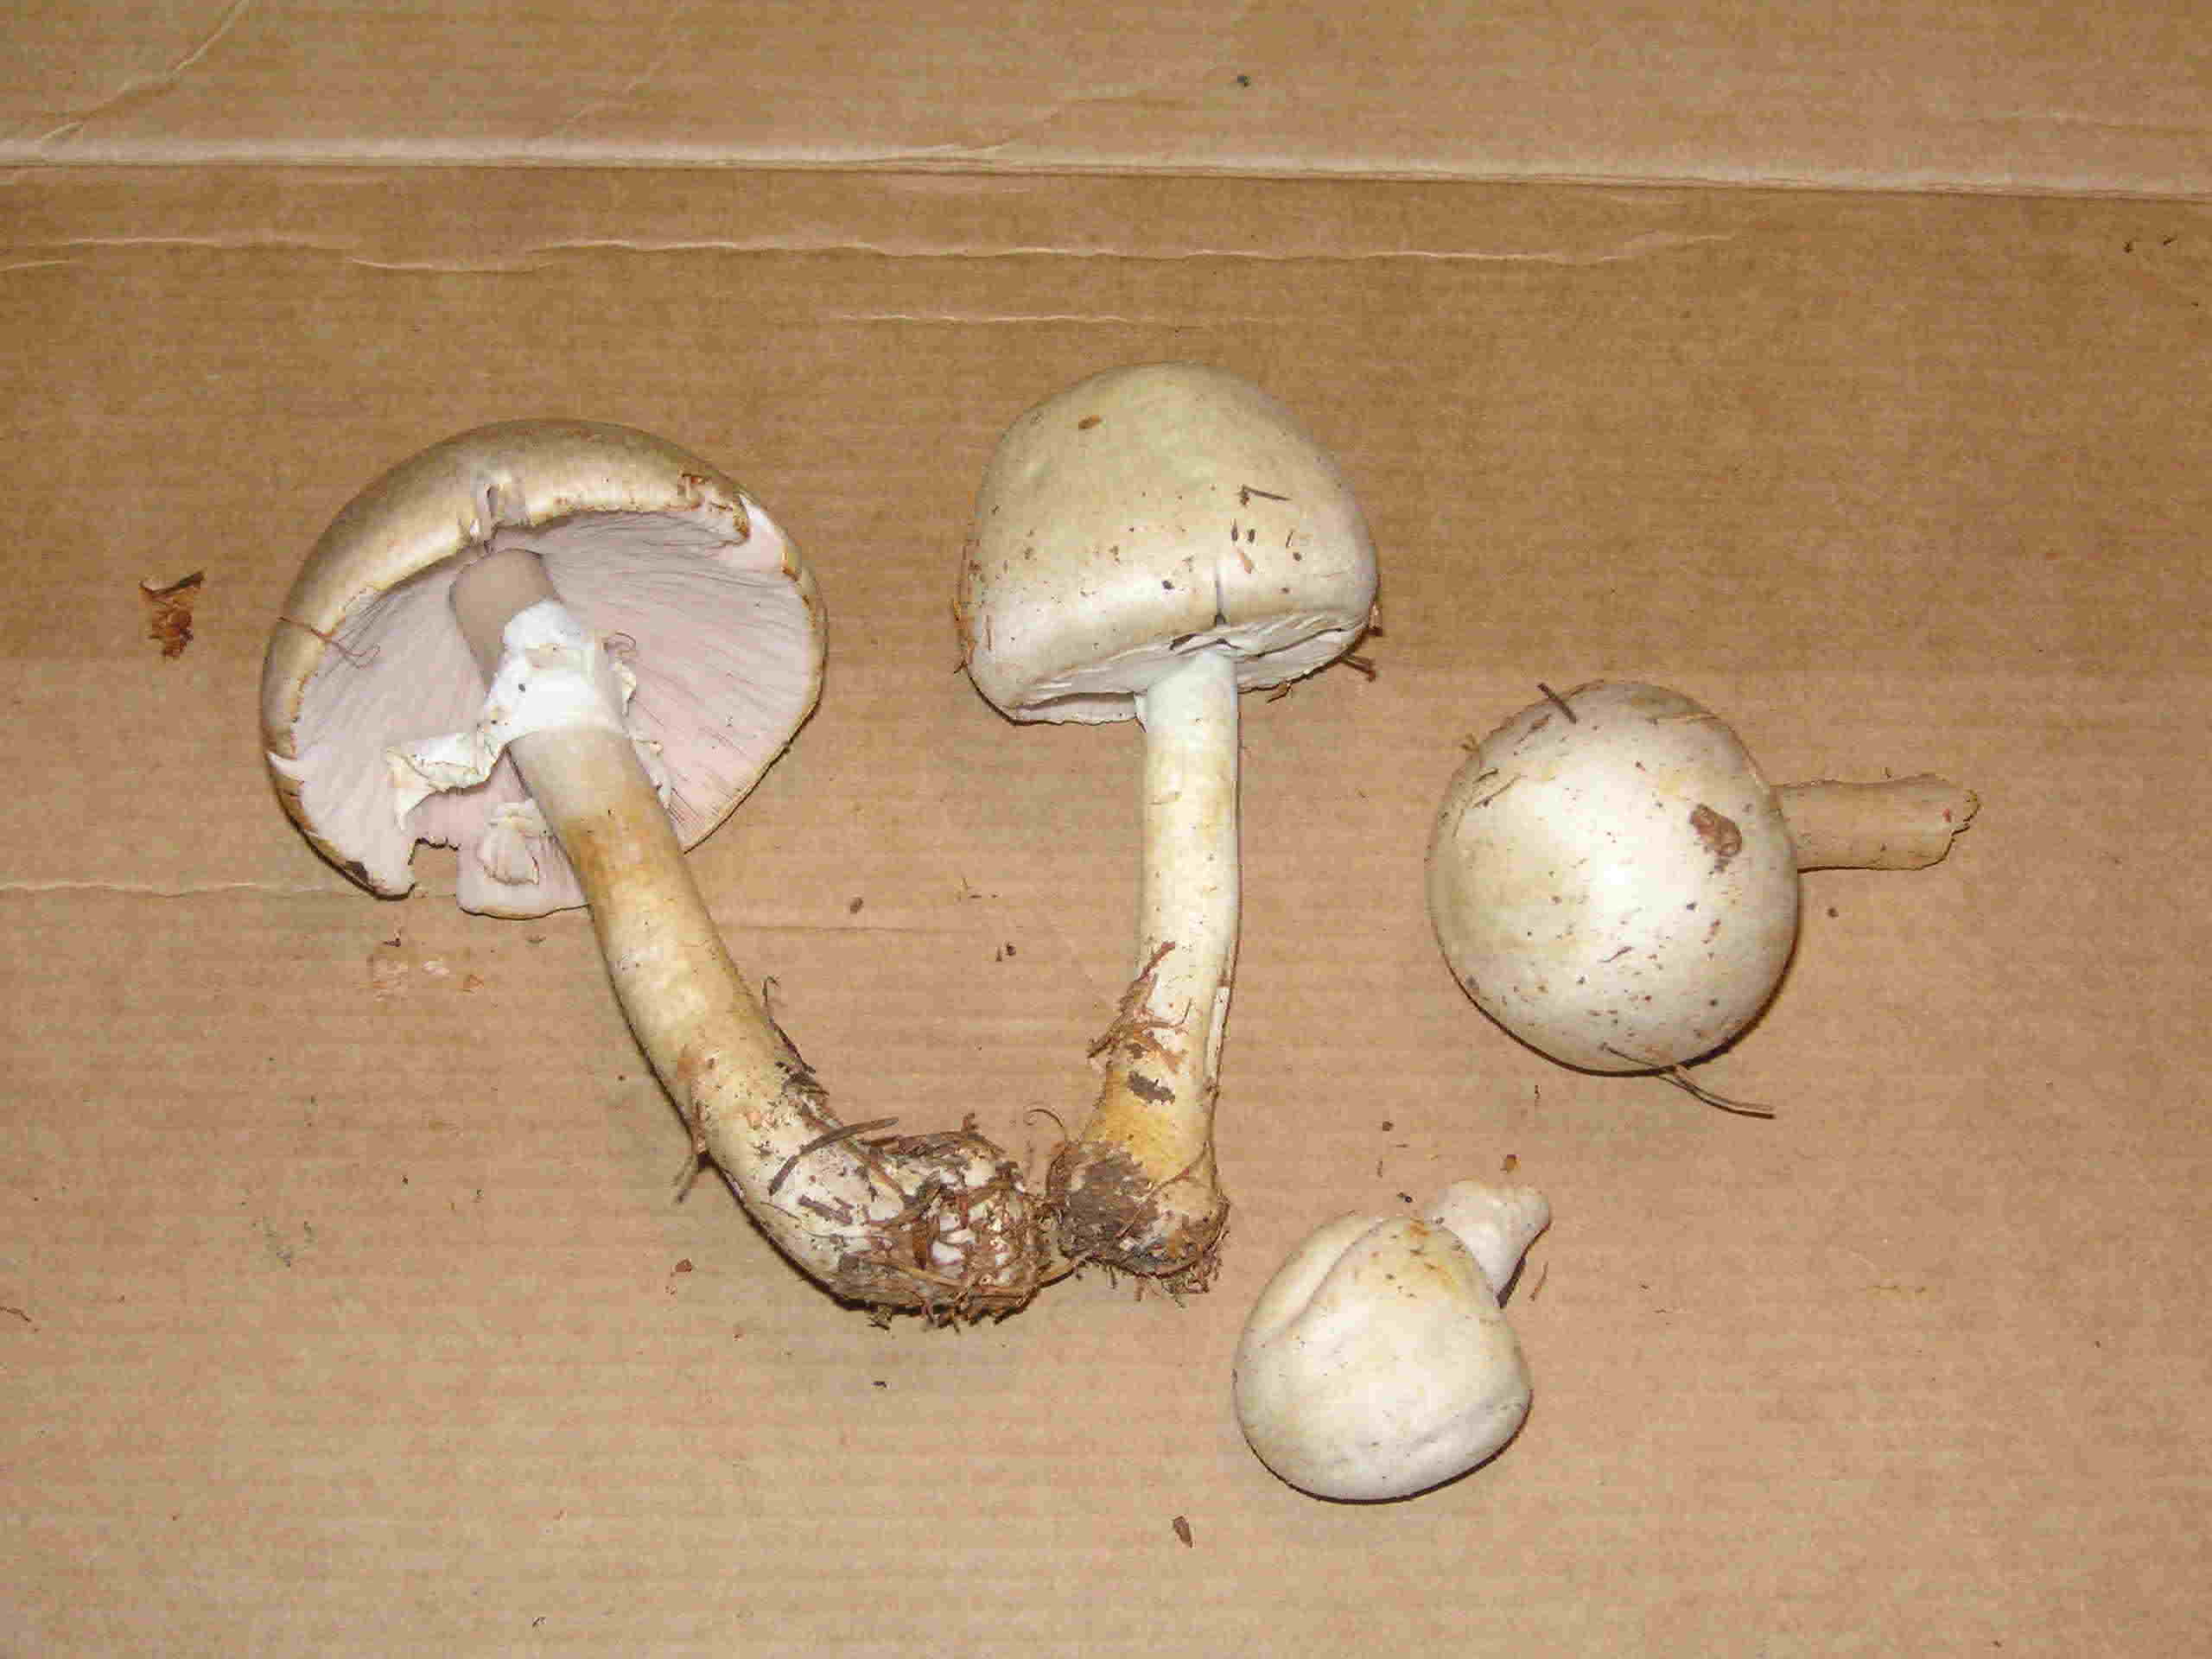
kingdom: Fungi
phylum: Basidiomycota
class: Agaricomycetes
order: Agaricales
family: Agaricaceae
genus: Agaricus
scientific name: Agaricus sylvicola
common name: skiveknoldet champignon
